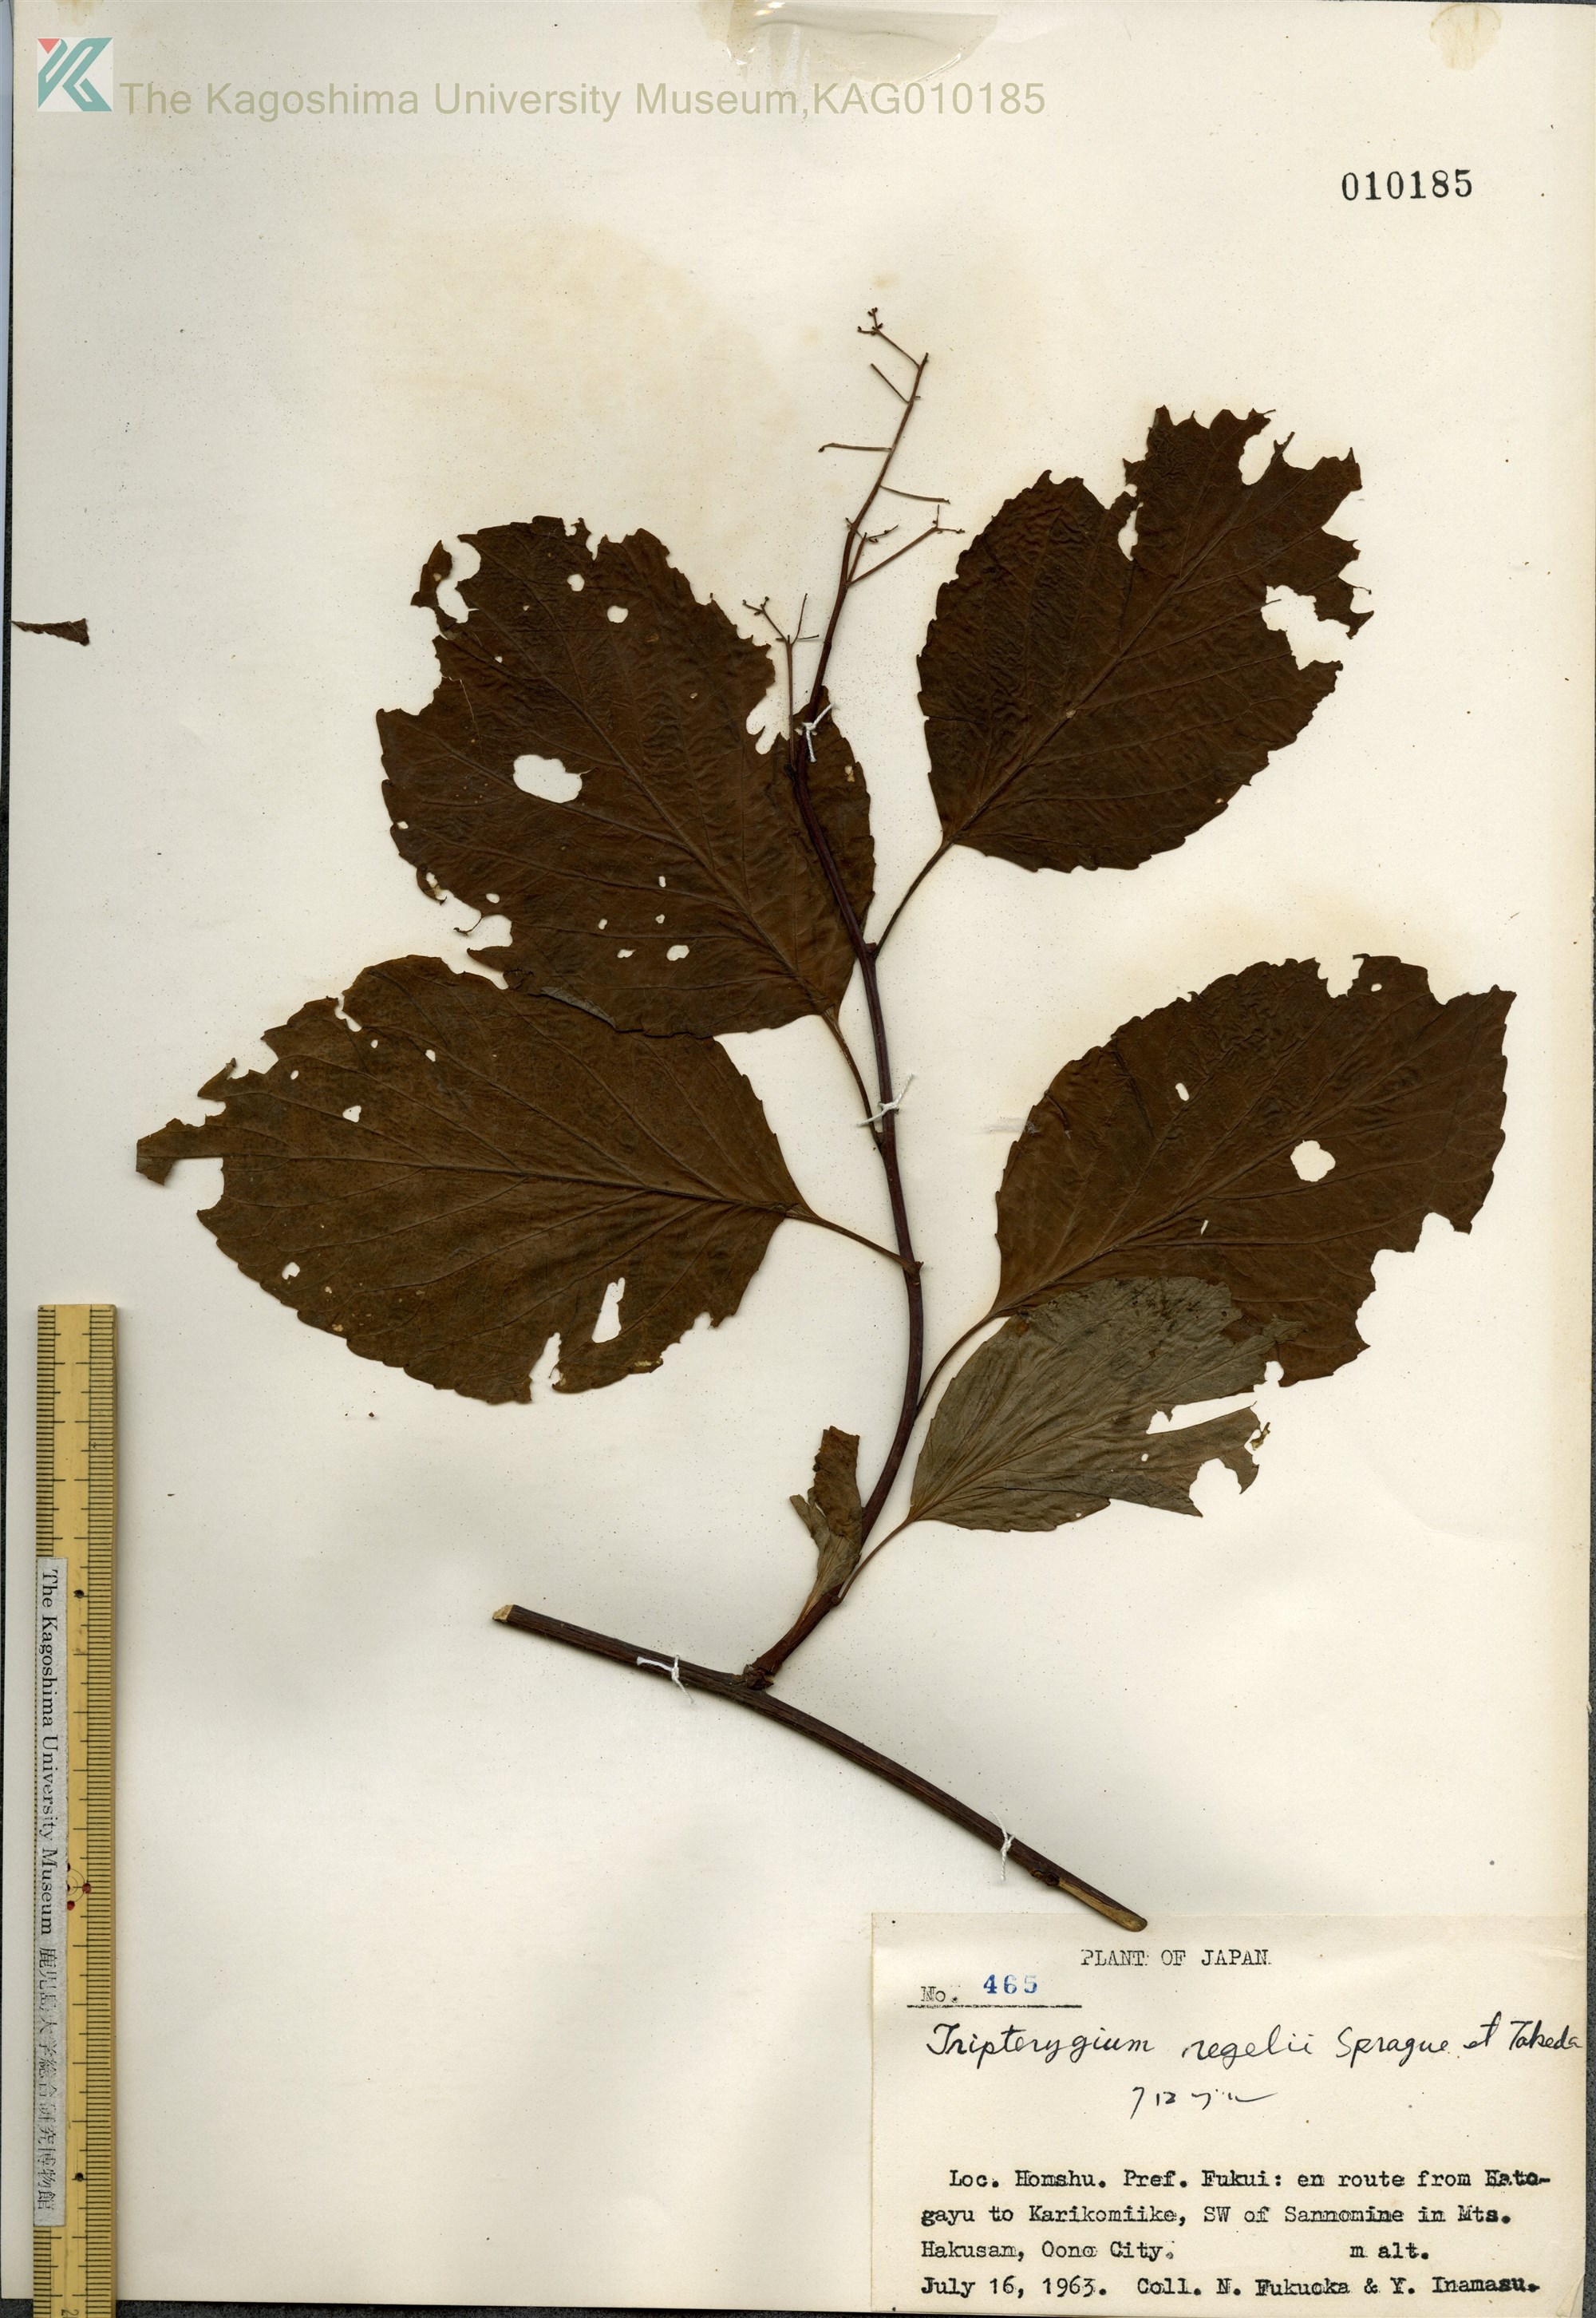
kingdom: Plantae
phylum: Tracheophyta
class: Magnoliopsida
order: Celastrales
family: Celastraceae
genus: Tripterygium
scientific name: Tripterygium wilfordii
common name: クロヅル
